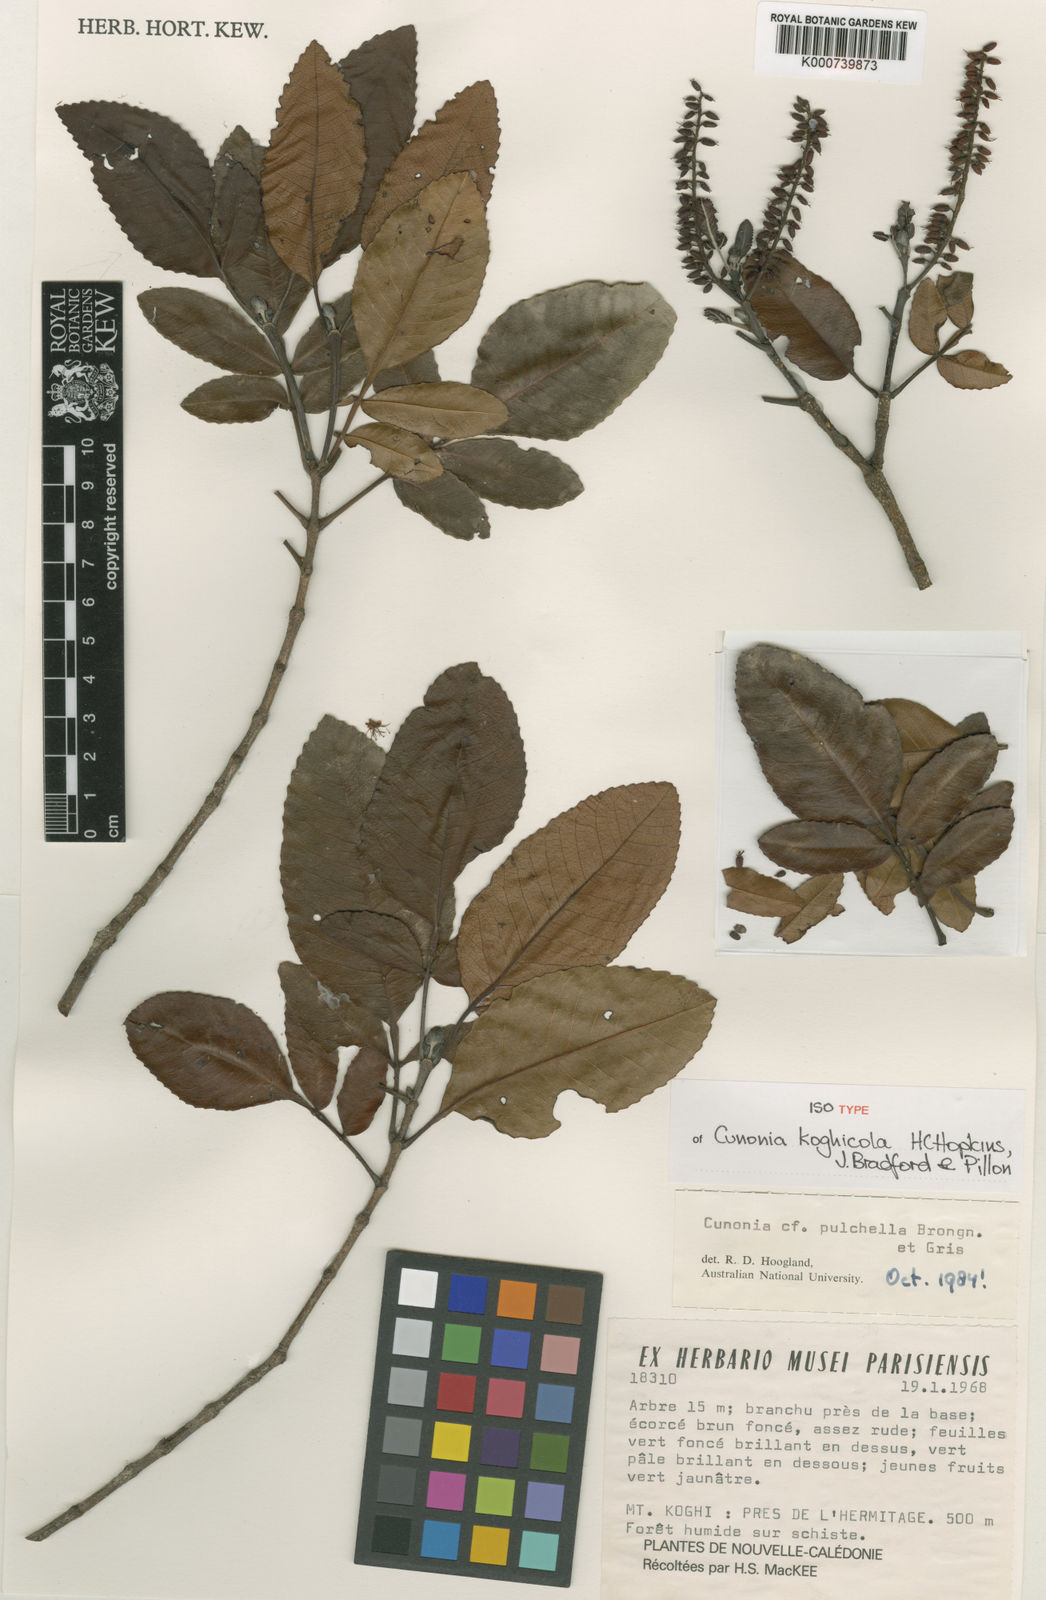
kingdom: Plantae
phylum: Tracheophyta
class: Magnoliopsida
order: Oxalidales
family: Cunoniaceae
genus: Cunonia
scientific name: Cunonia
